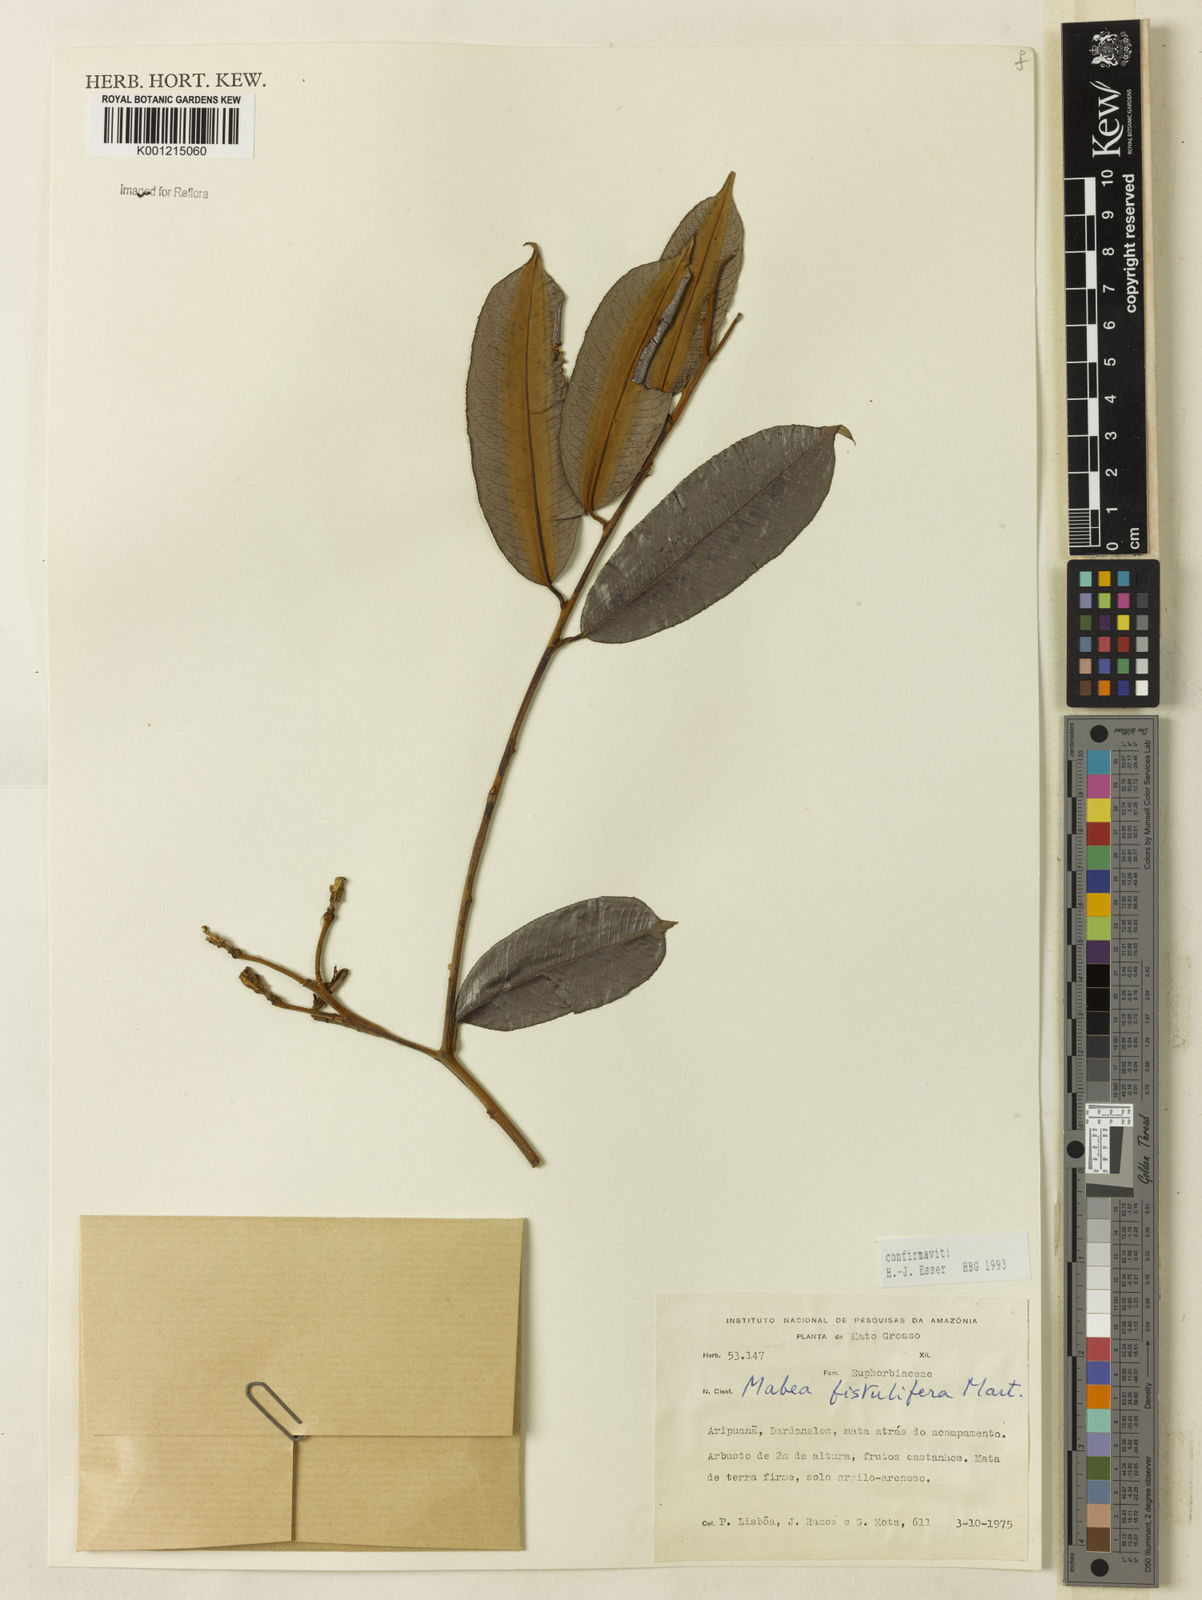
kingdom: Plantae
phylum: Tracheophyta
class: Magnoliopsida
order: Malpighiales
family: Euphorbiaceae
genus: Mabea
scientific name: Mabea fistulifera
